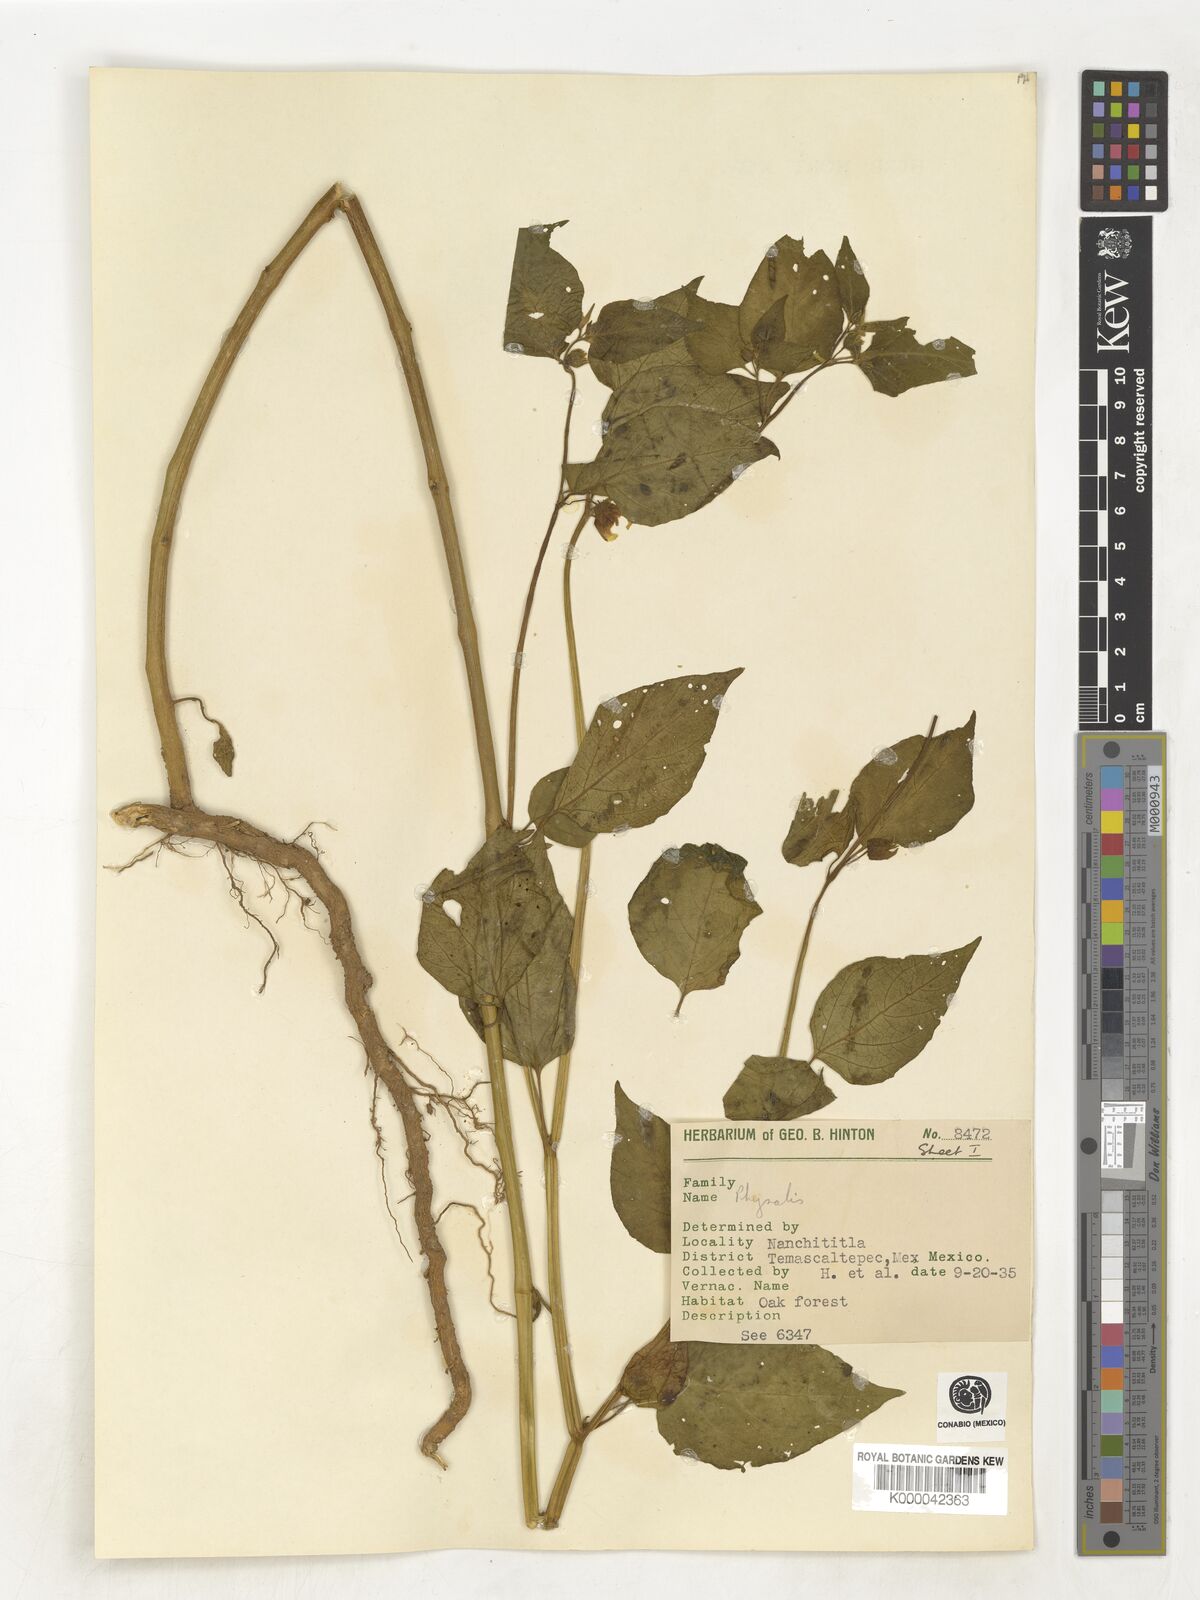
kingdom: Plantae
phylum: Tracheophyta
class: Magnoliopsida
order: Solanales
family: Solanaceae
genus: Physalis
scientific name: Physalis
